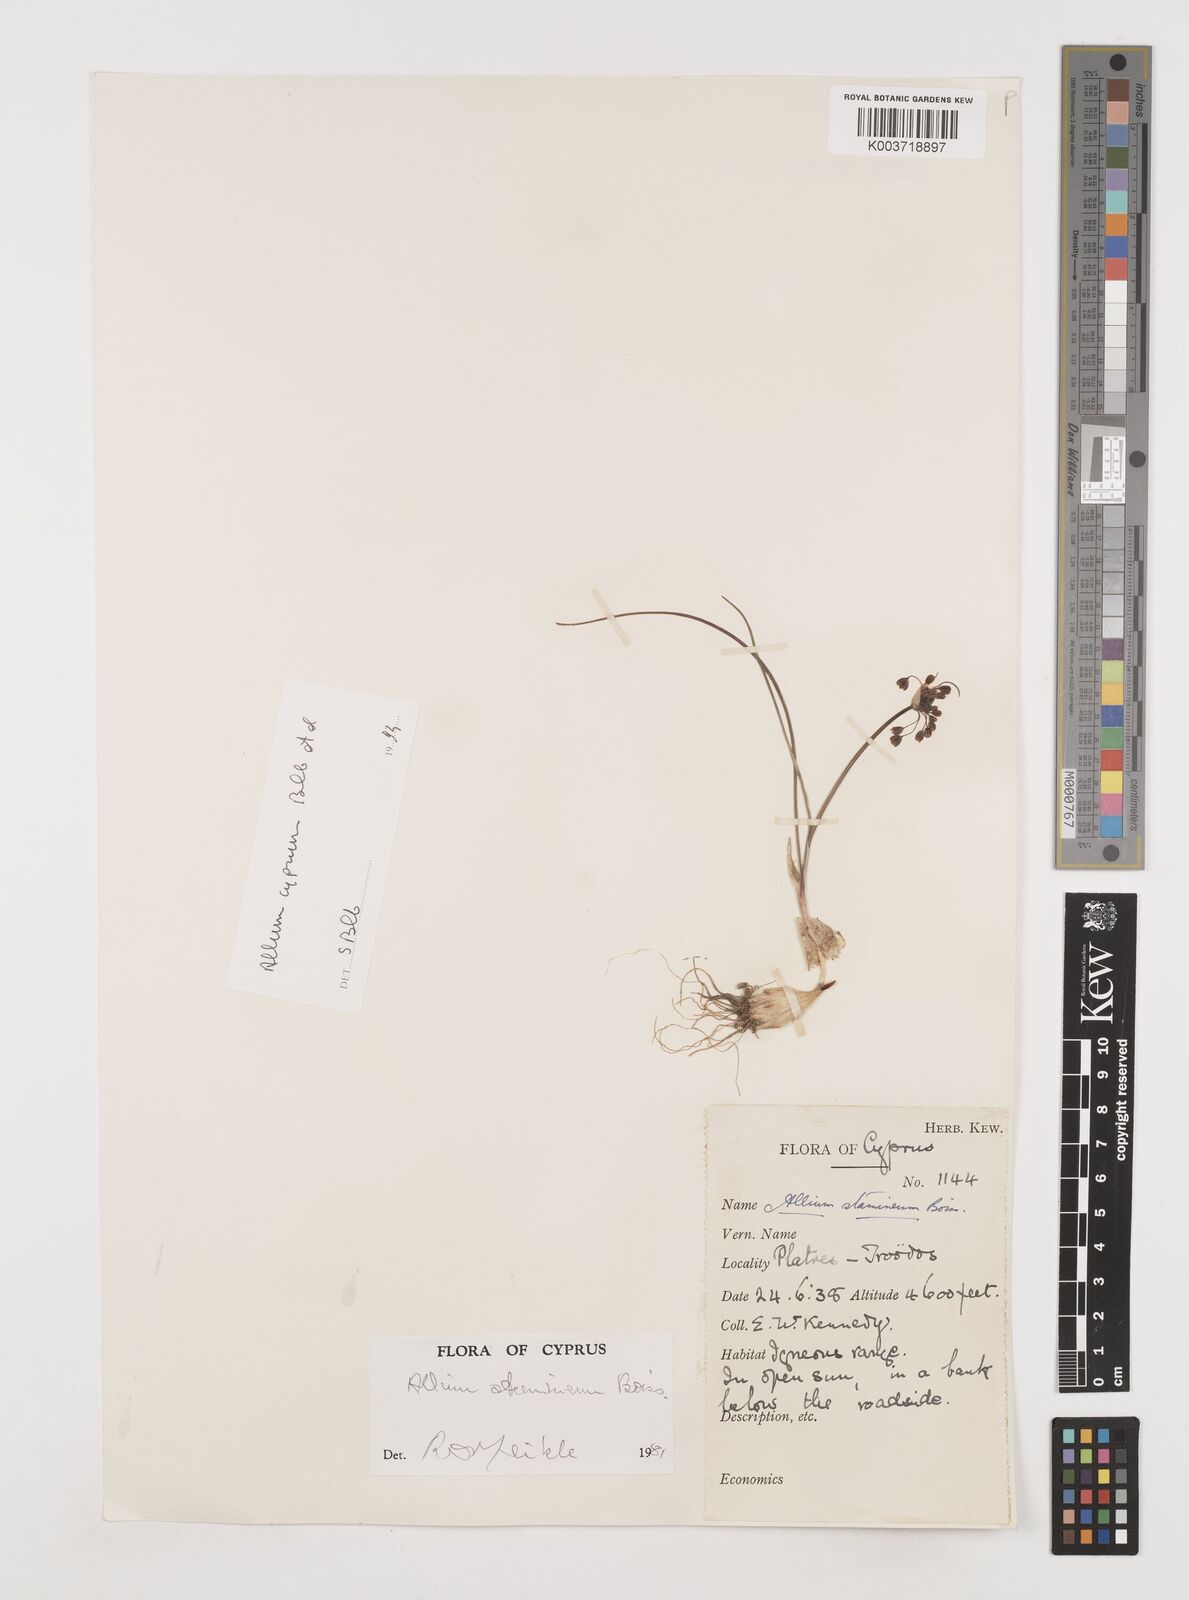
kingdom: Plantae
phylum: Tracheophyta
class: Liliopsida
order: Asparagales
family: Amaryllidaceae
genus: Allium
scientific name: Allium stamineum
